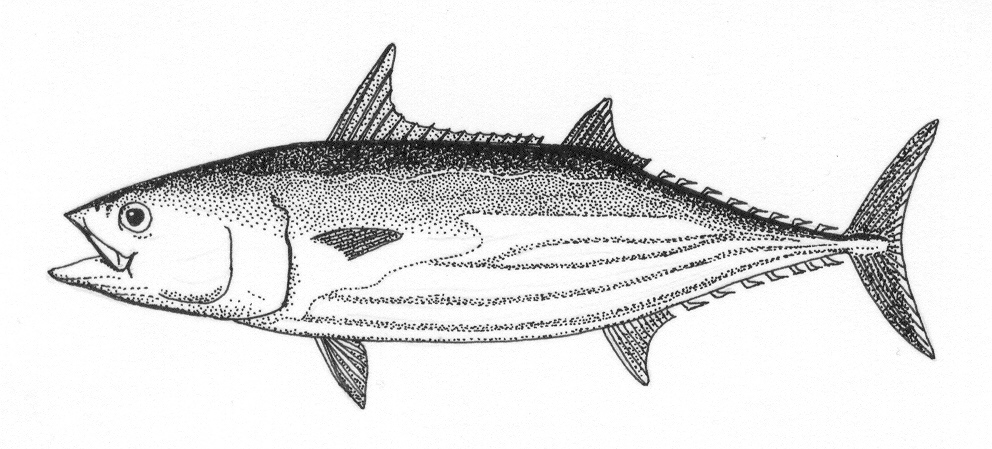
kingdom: Animalia
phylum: Chordata
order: Perciformes
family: Scombridae
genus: Katsuwonus
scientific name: Katsuwonus pelamis
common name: Skipjack tuna
